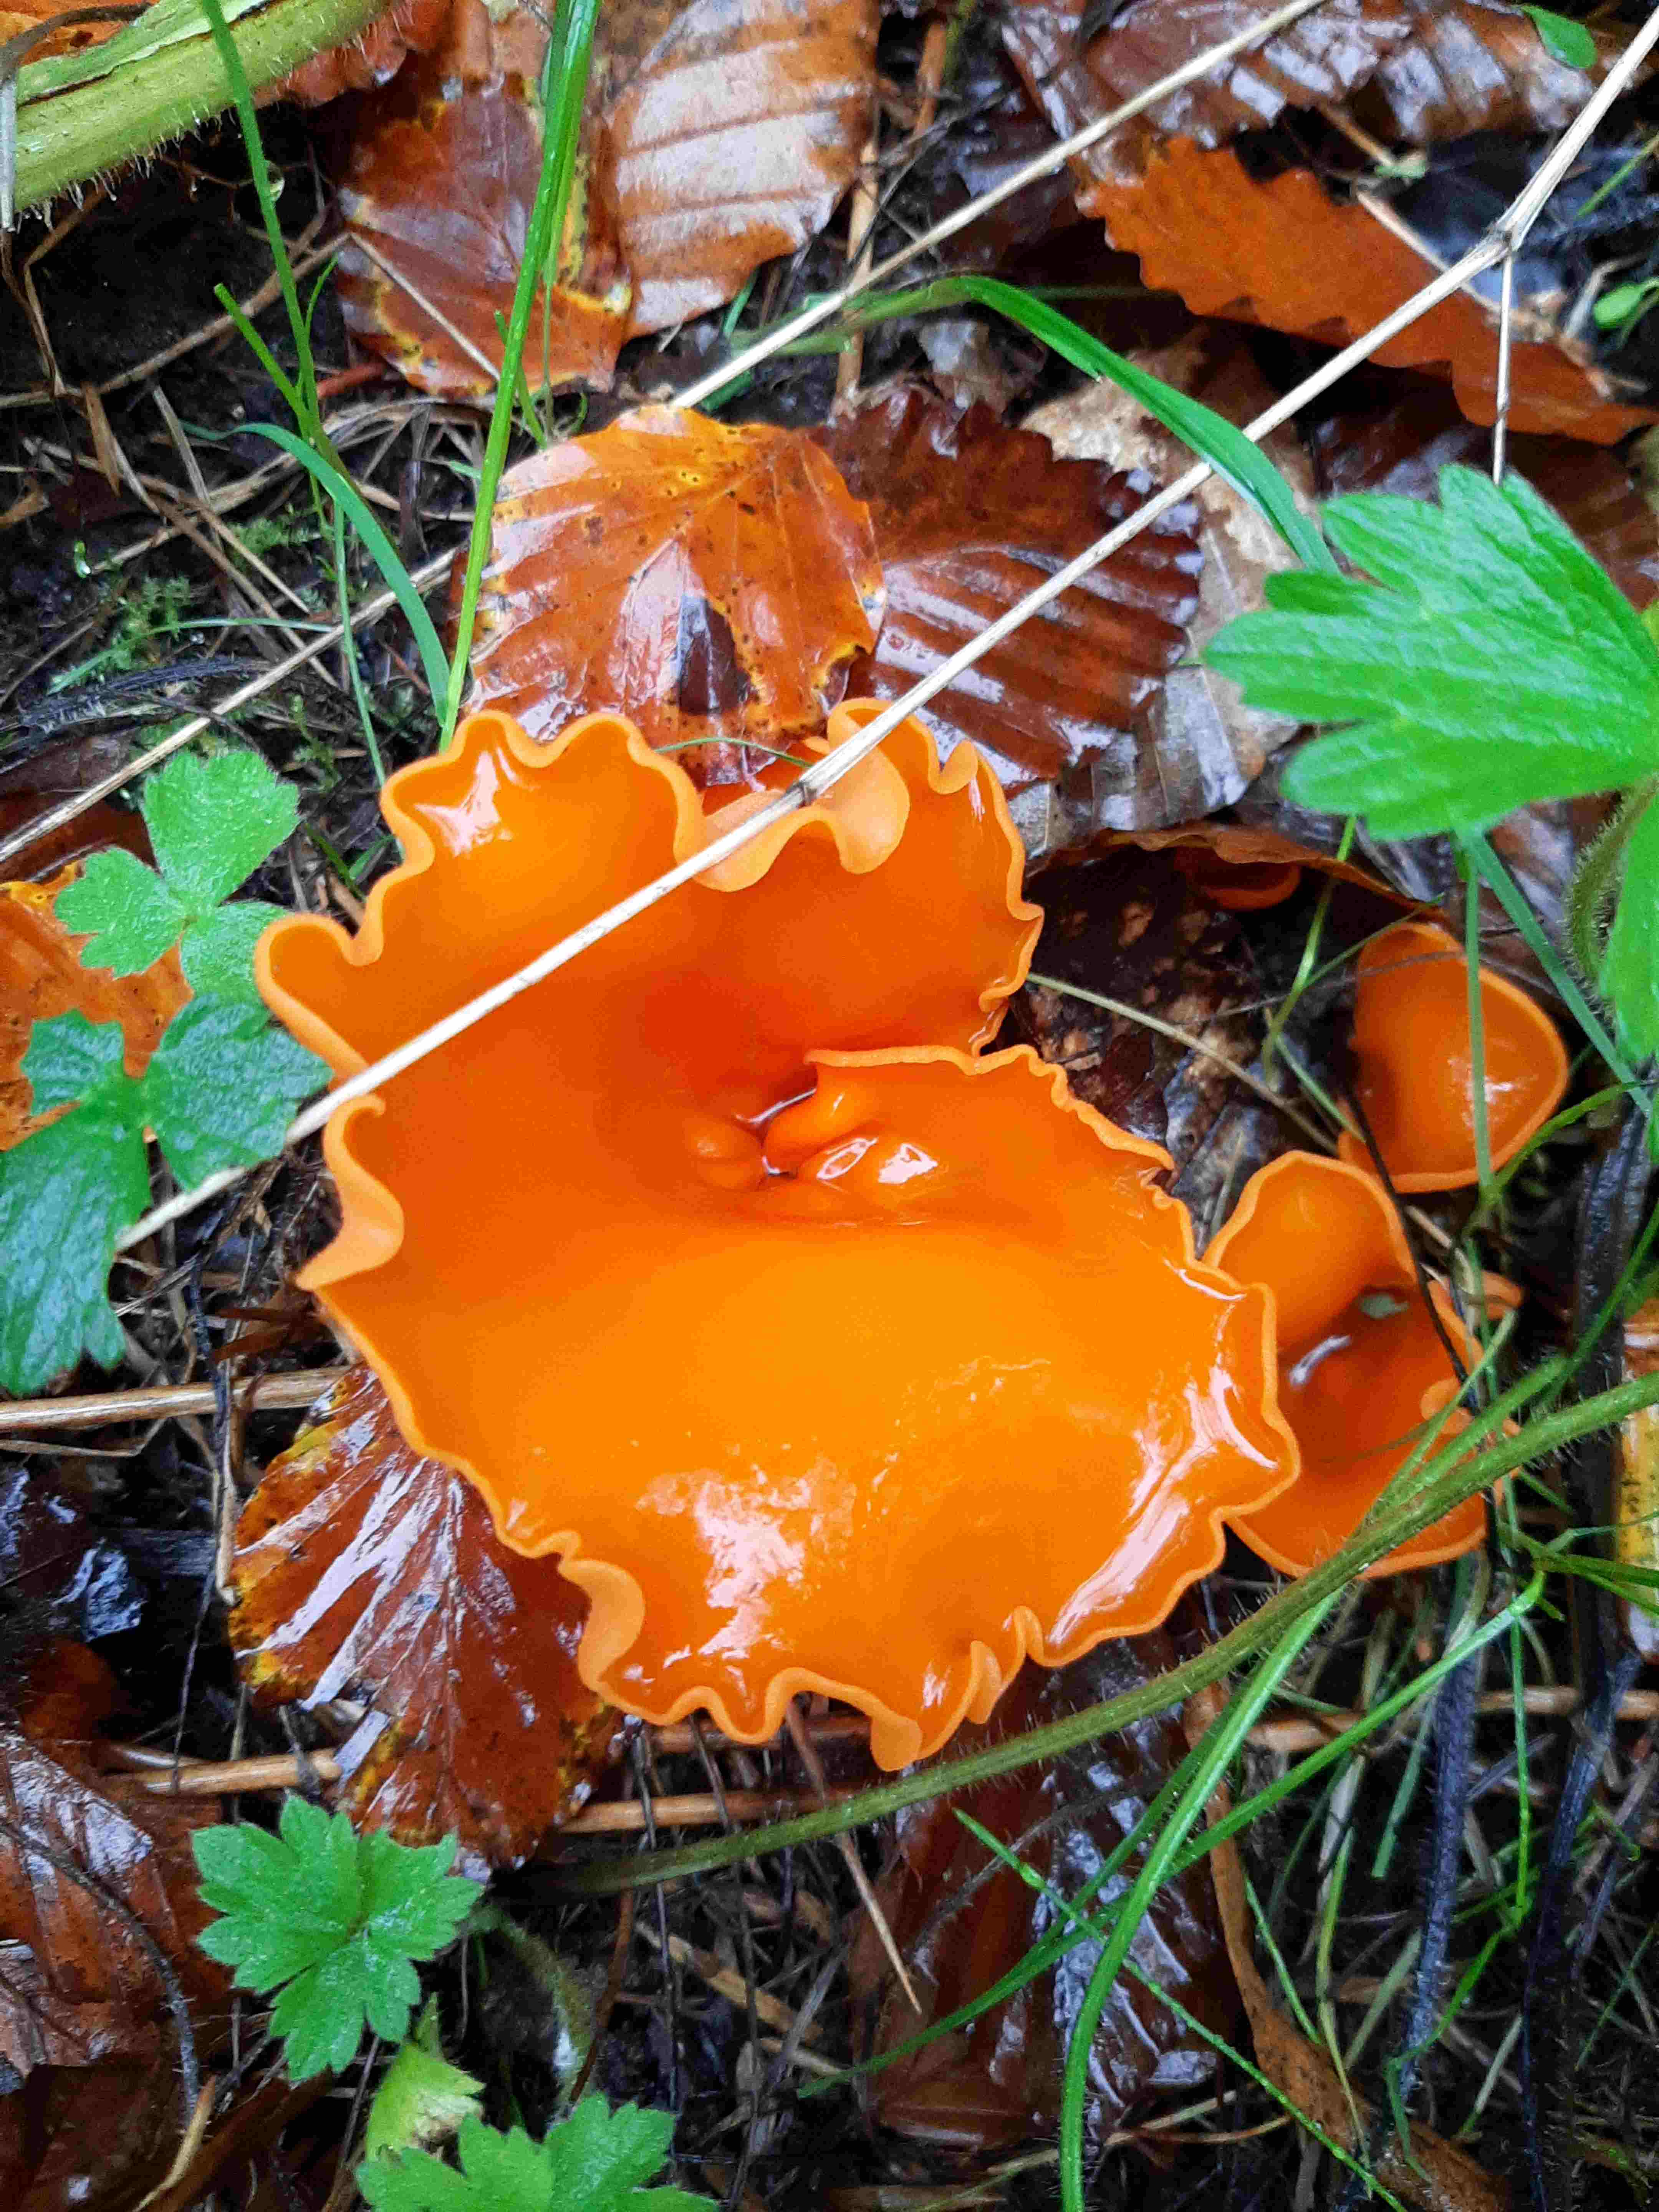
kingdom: Fungi
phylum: Ascomycota
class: Pezizomycetes
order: Pezizales
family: Pyronemataceae
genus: Aleuria
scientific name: Aleuria aurantia
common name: almindelig orangebæger
